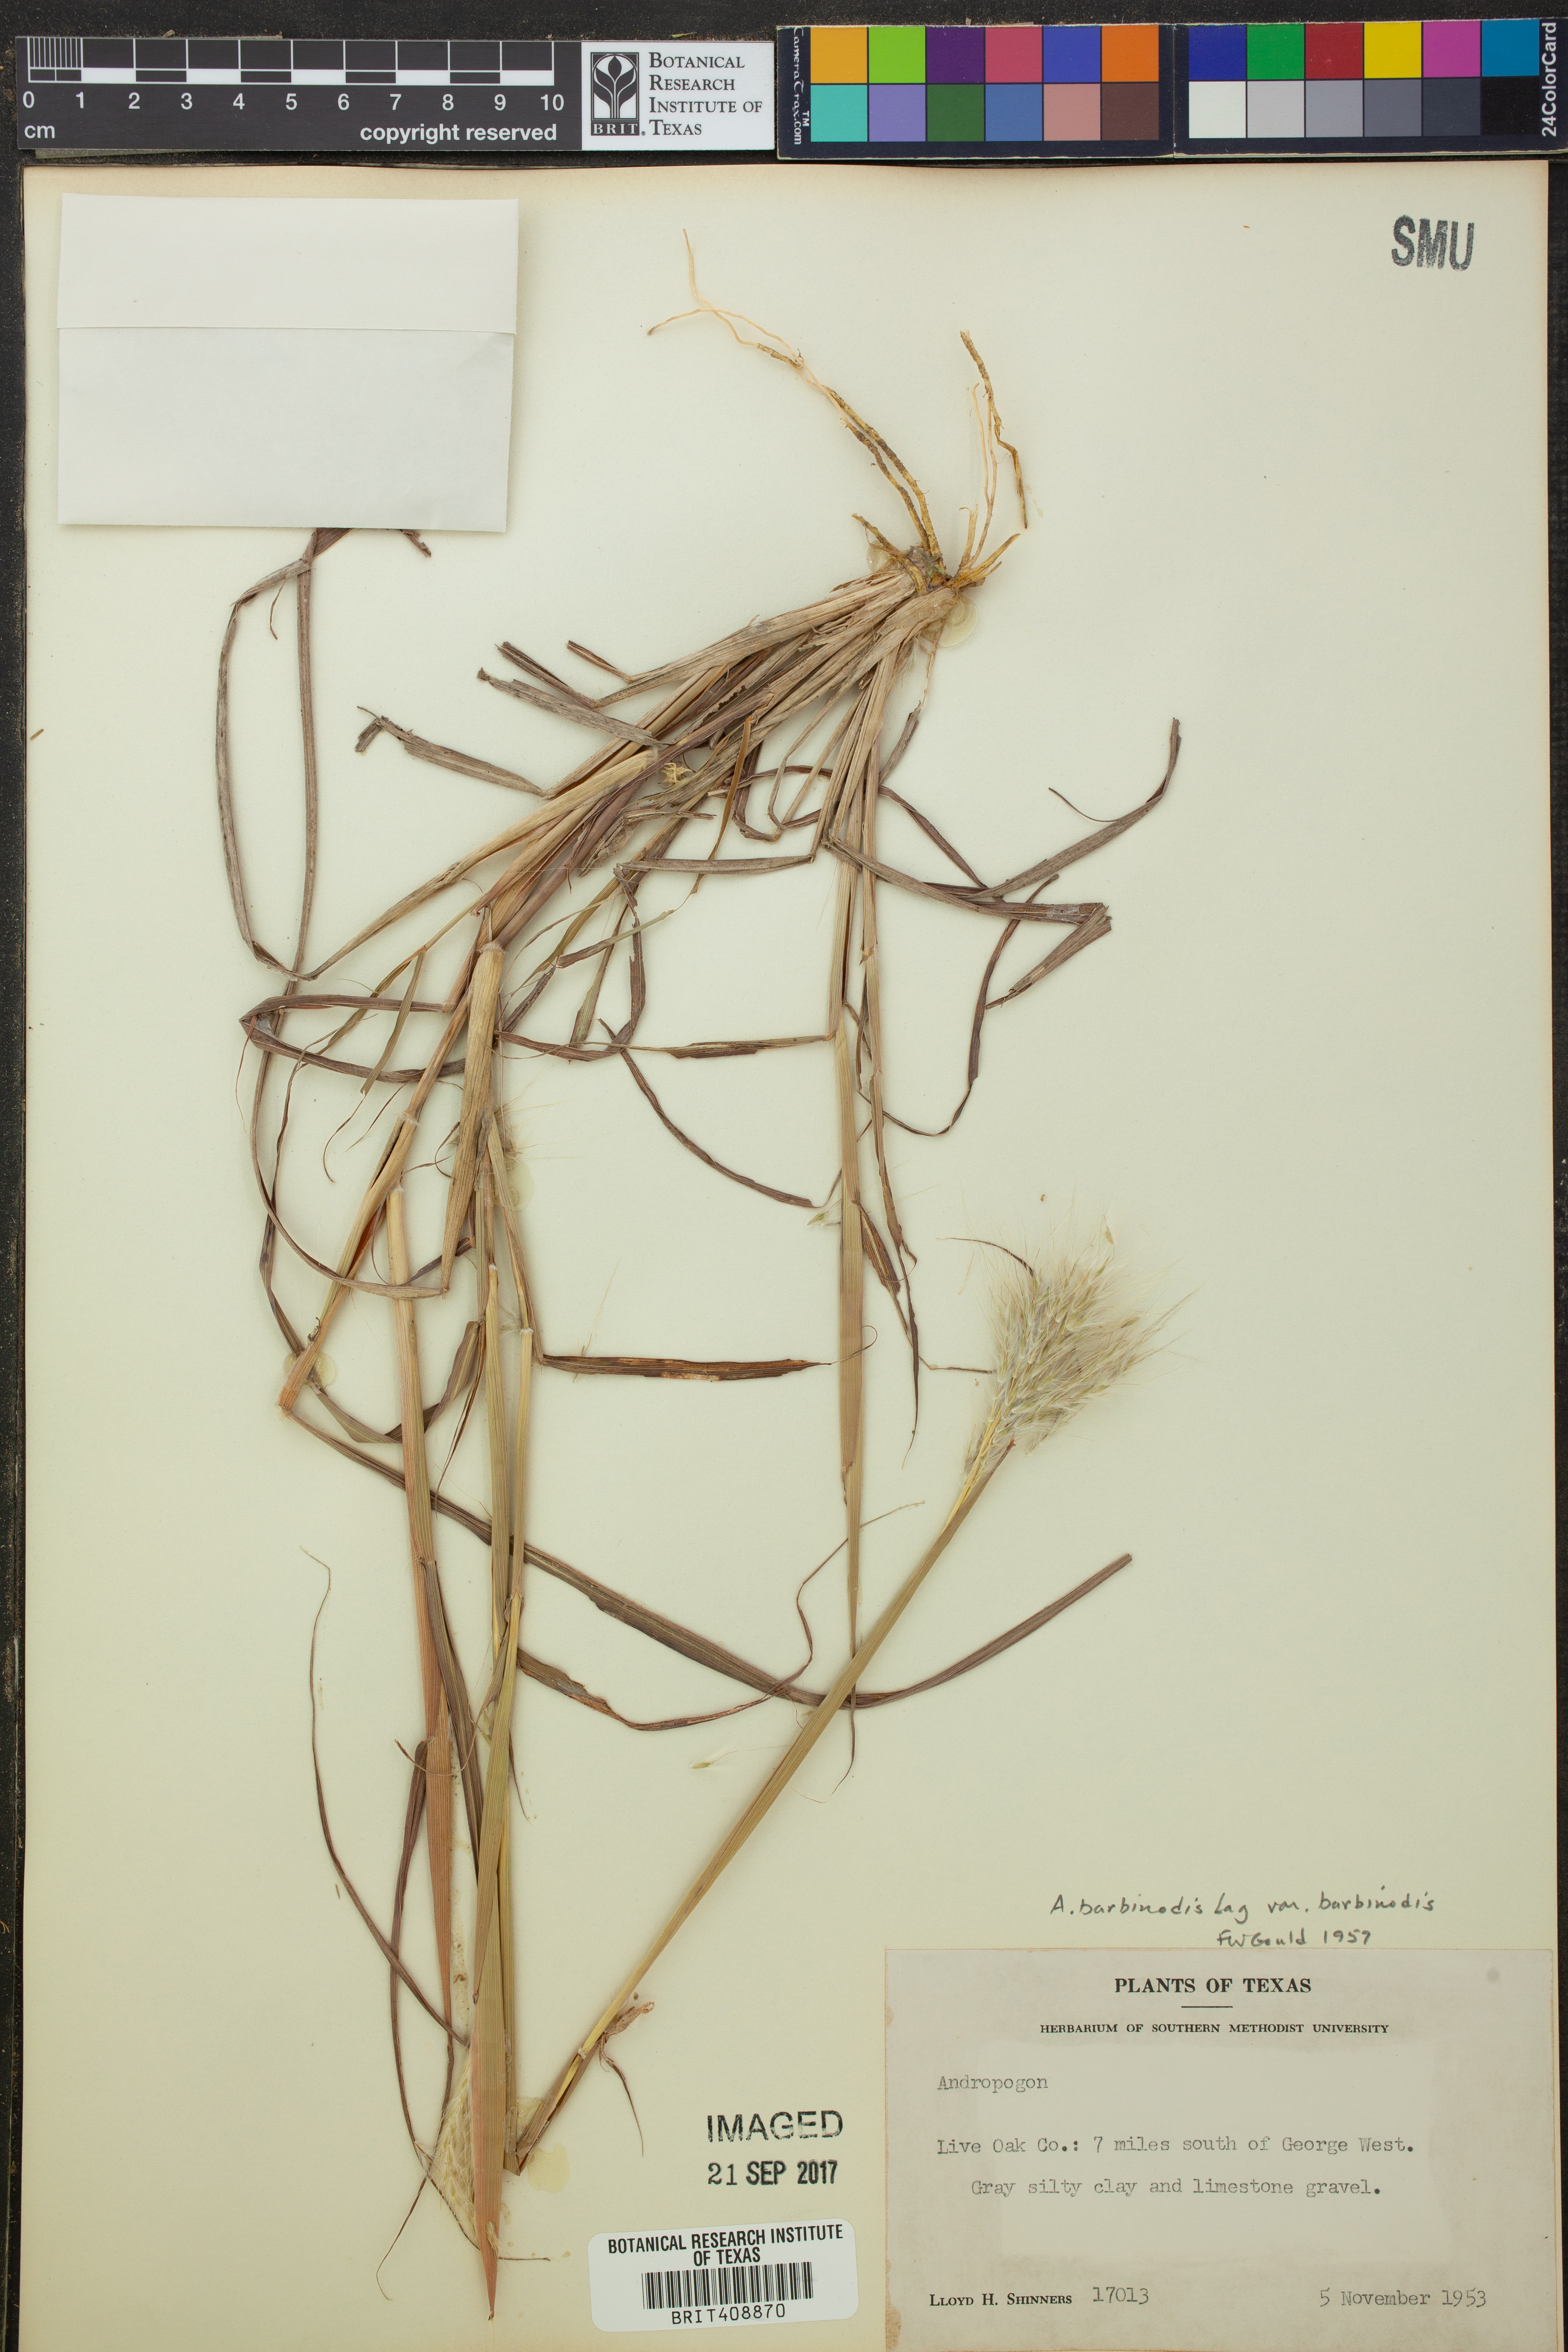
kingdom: Plantae
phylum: Tracheophyta
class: Liliopsida
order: Poales
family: Poaceae
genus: Bothriochloa
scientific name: Bothriochloa barbinodis
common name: Cane bluestem
